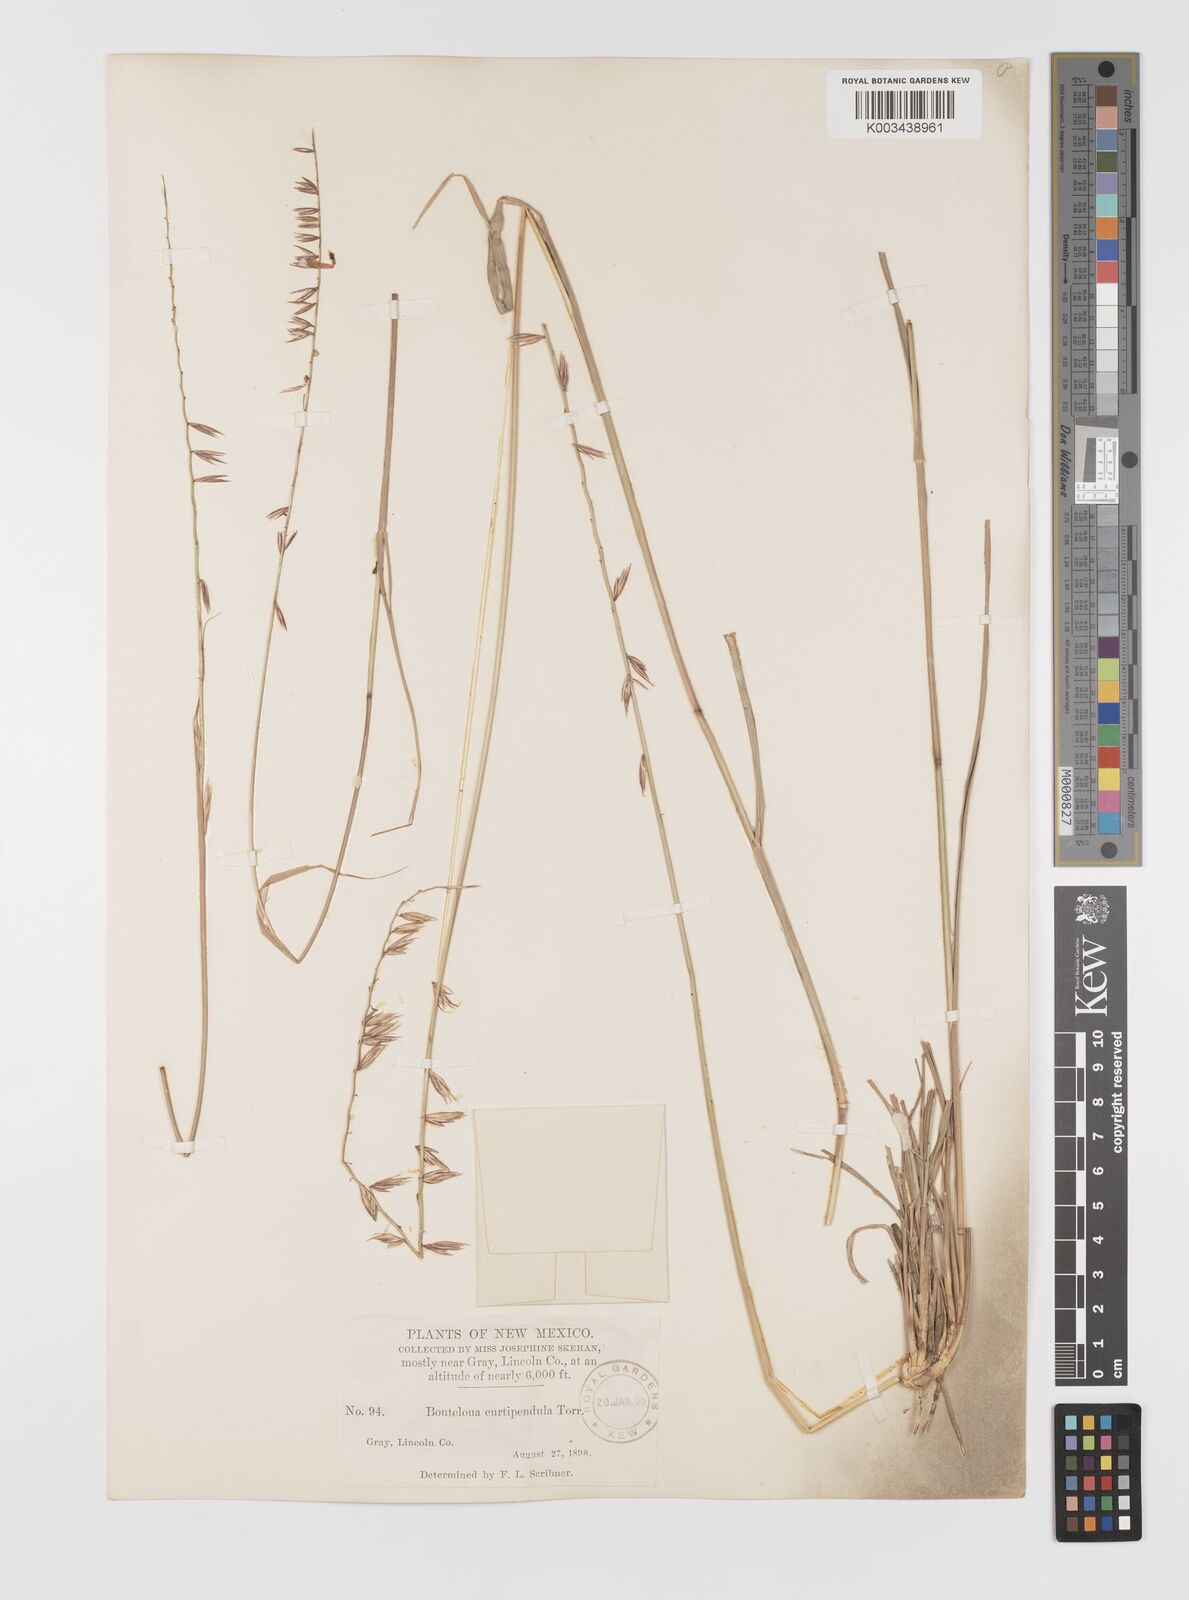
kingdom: Plantae
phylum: Tracheophyta
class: Liliopsida
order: Poales
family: Poaceae
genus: Bouteloua
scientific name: Bouteloua curtipendula
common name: Side-oats grama
